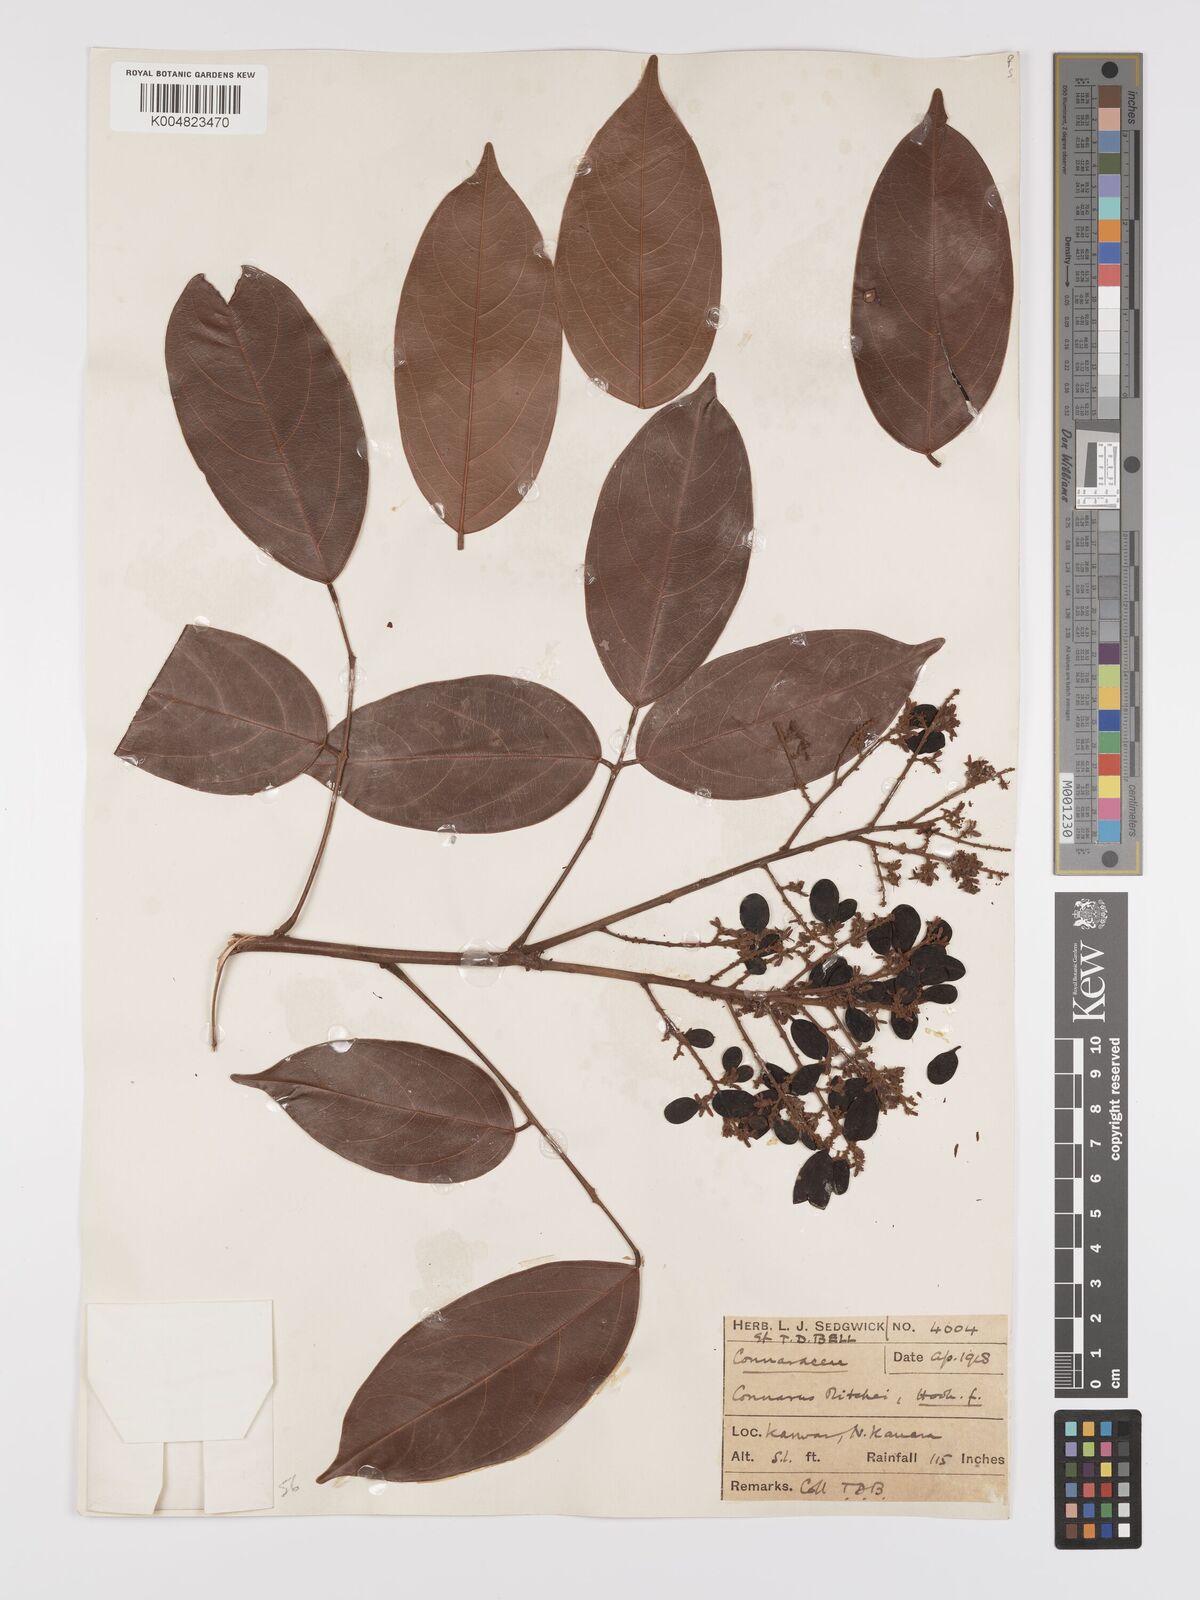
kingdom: Plantae
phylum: Tracheophyta
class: Magnoliopsida
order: Oxalidales
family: Connaraceae
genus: Connarus
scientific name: Connarus wightii
